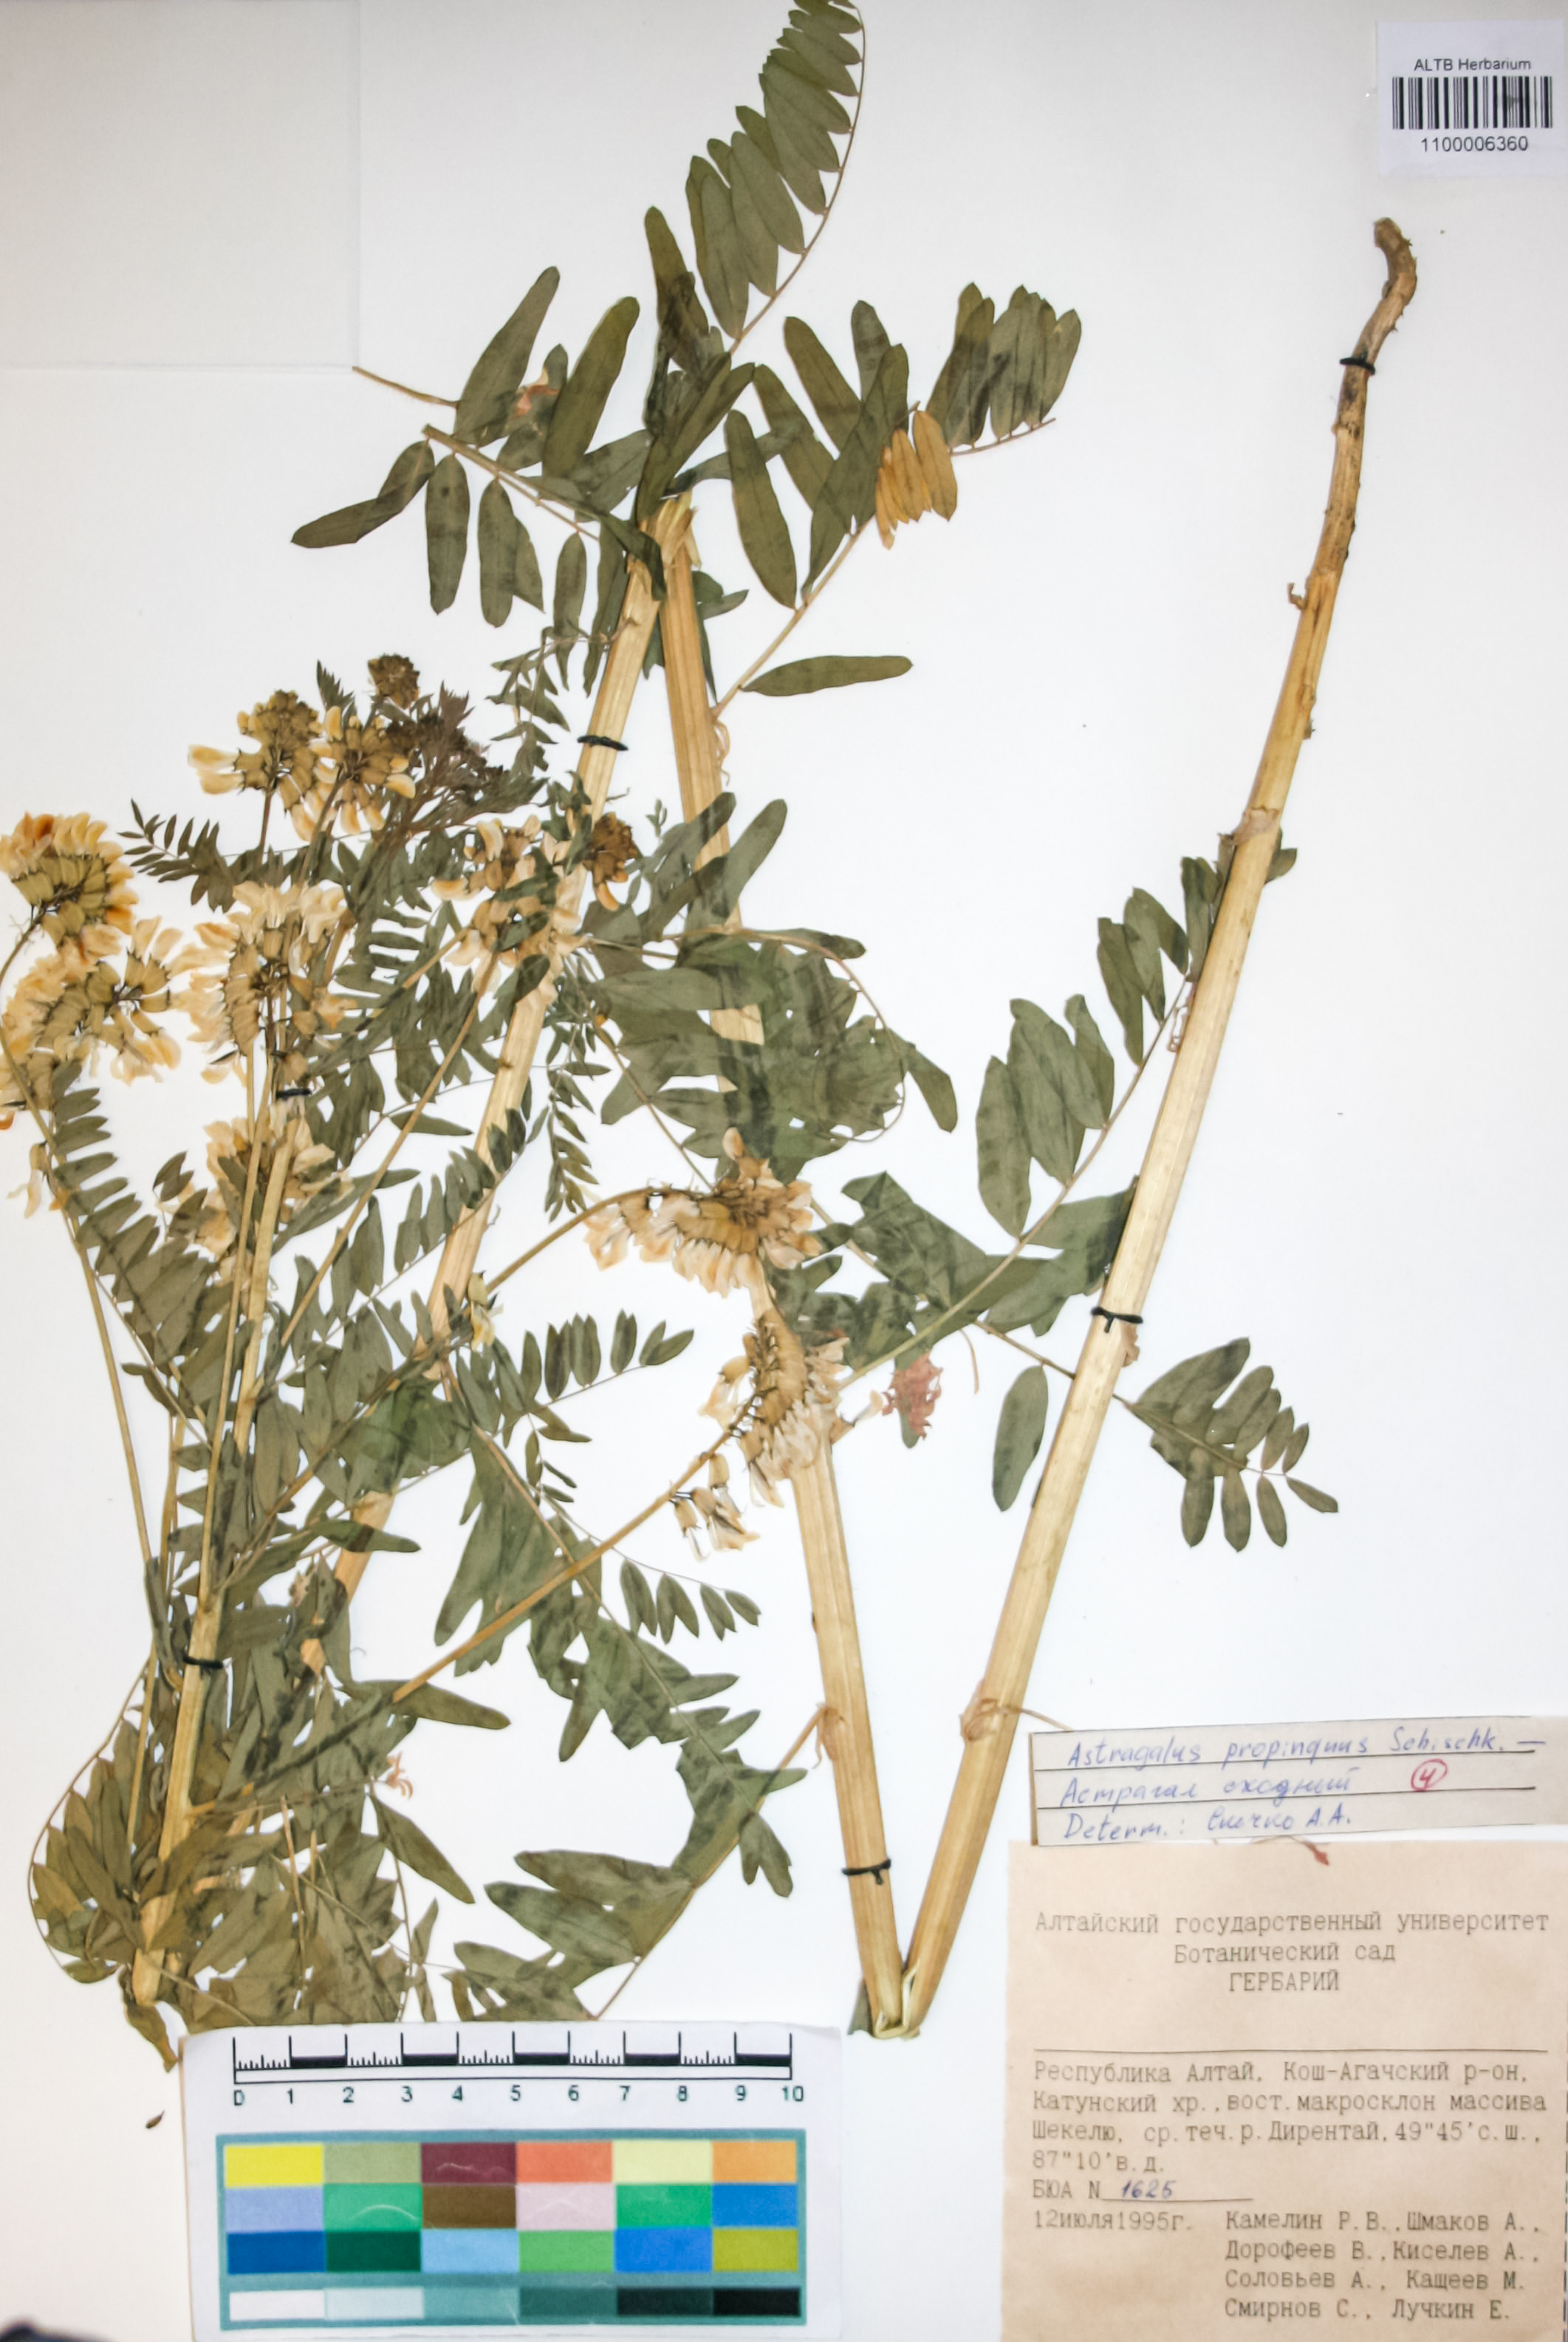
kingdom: Plantae
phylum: Tracheophyta
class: Magnoliopsida
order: Fabales
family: Fabaceae
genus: Astragalus
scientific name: Astragalus mongholicus
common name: Membranous milk-vetch
